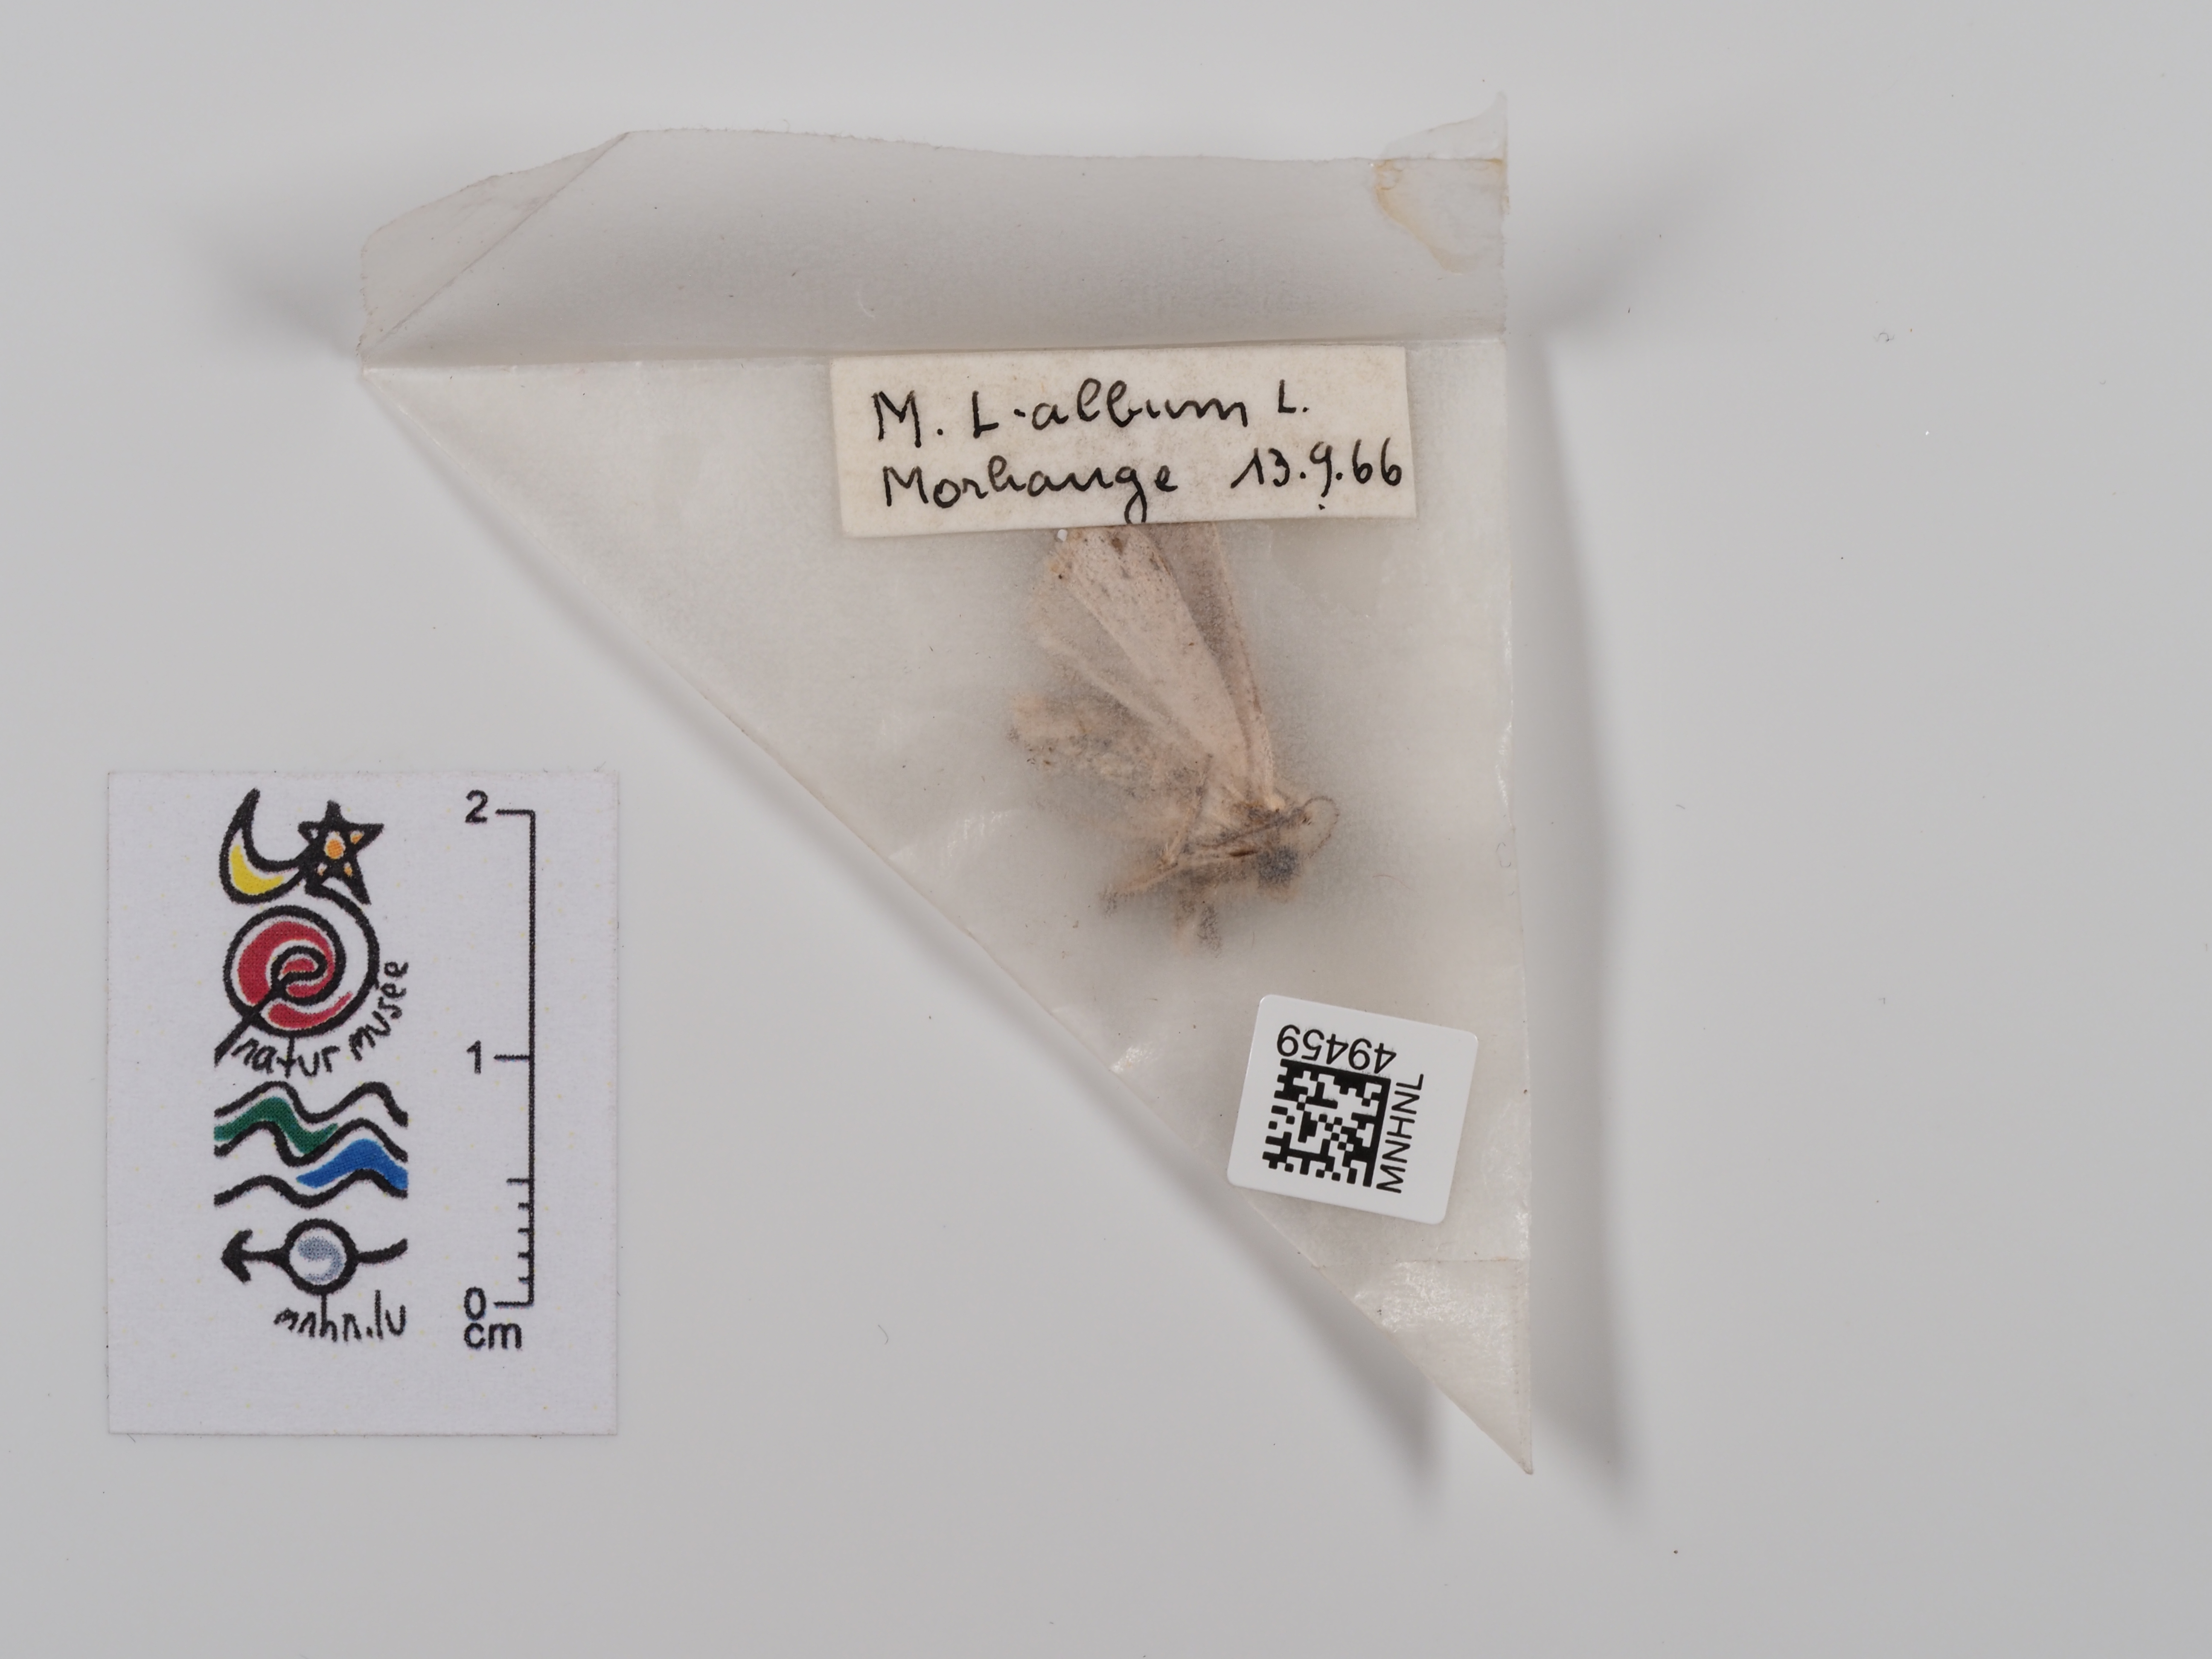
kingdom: Animalia
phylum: Arthropoda
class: Insecta
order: Lepidoptera
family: Noctuidae
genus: Mythimna
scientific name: Mythimna l-album
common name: L-album wainscot
